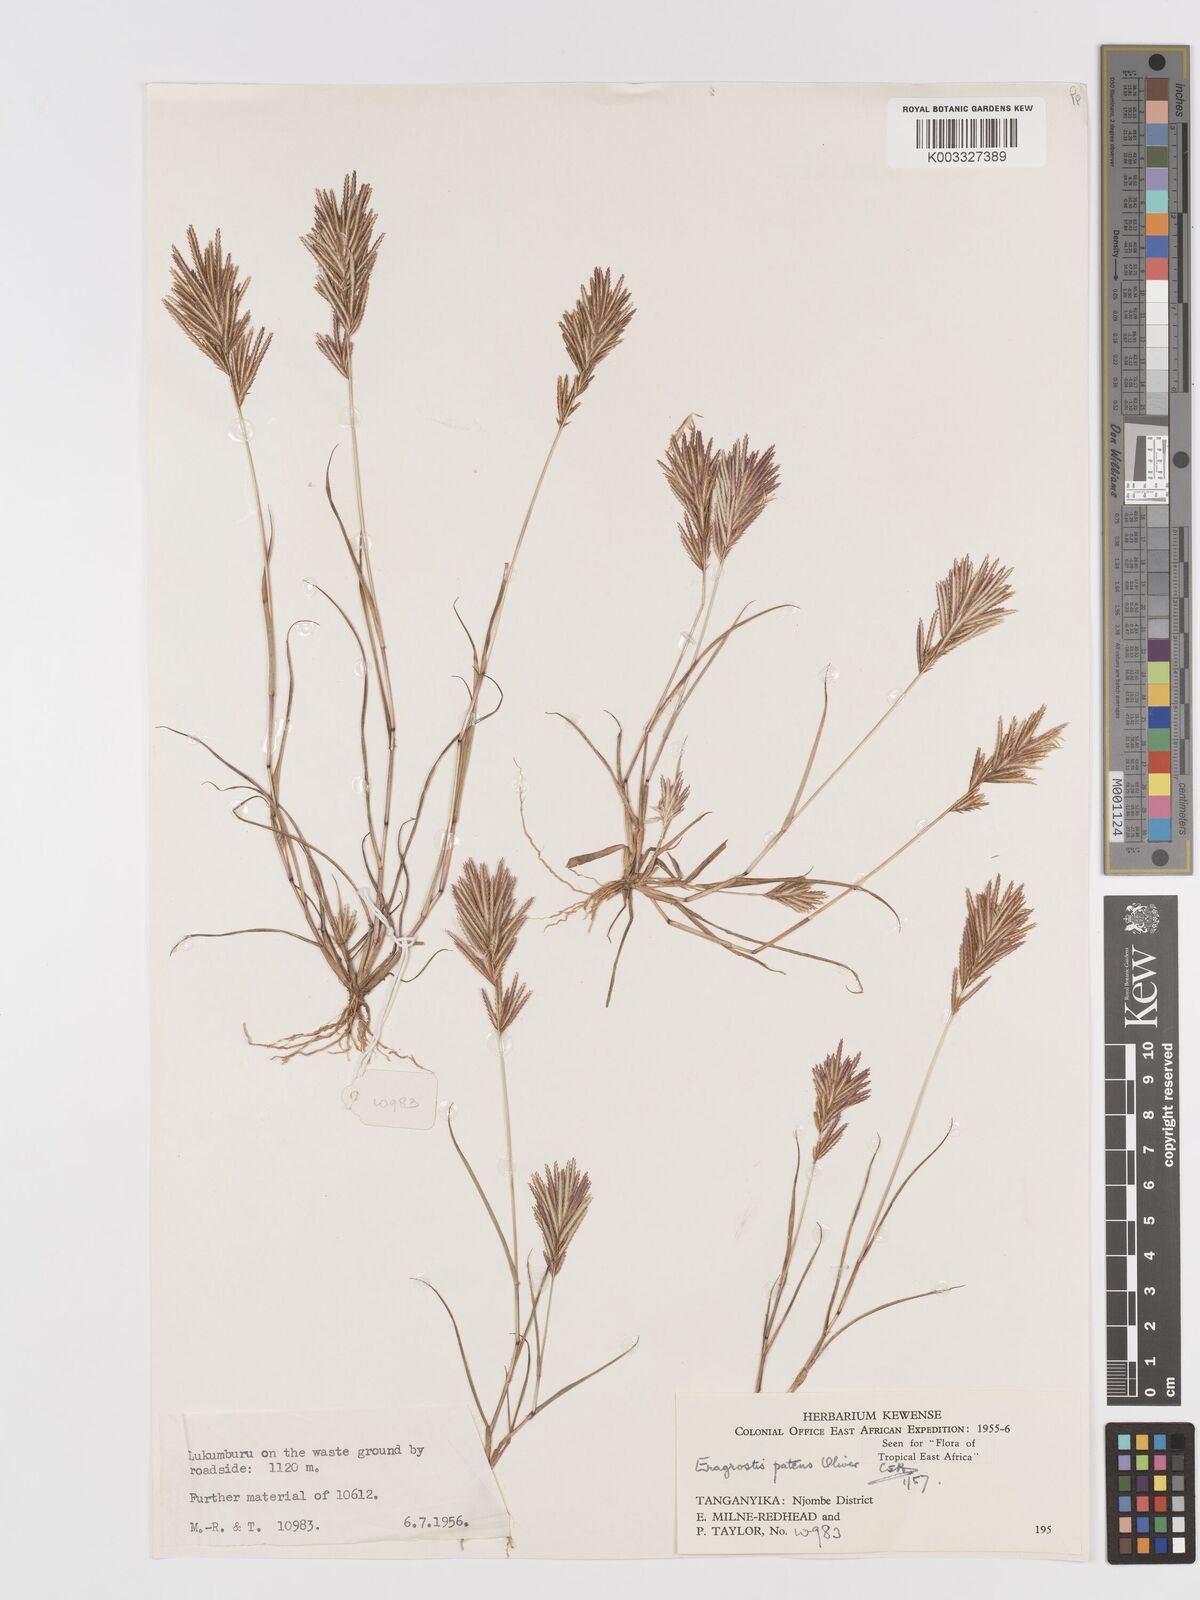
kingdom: Plantae
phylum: Tracheophyta
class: Liliopsida
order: Poales
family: Poaceae
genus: Eragrostis
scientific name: Eragrostis patens
